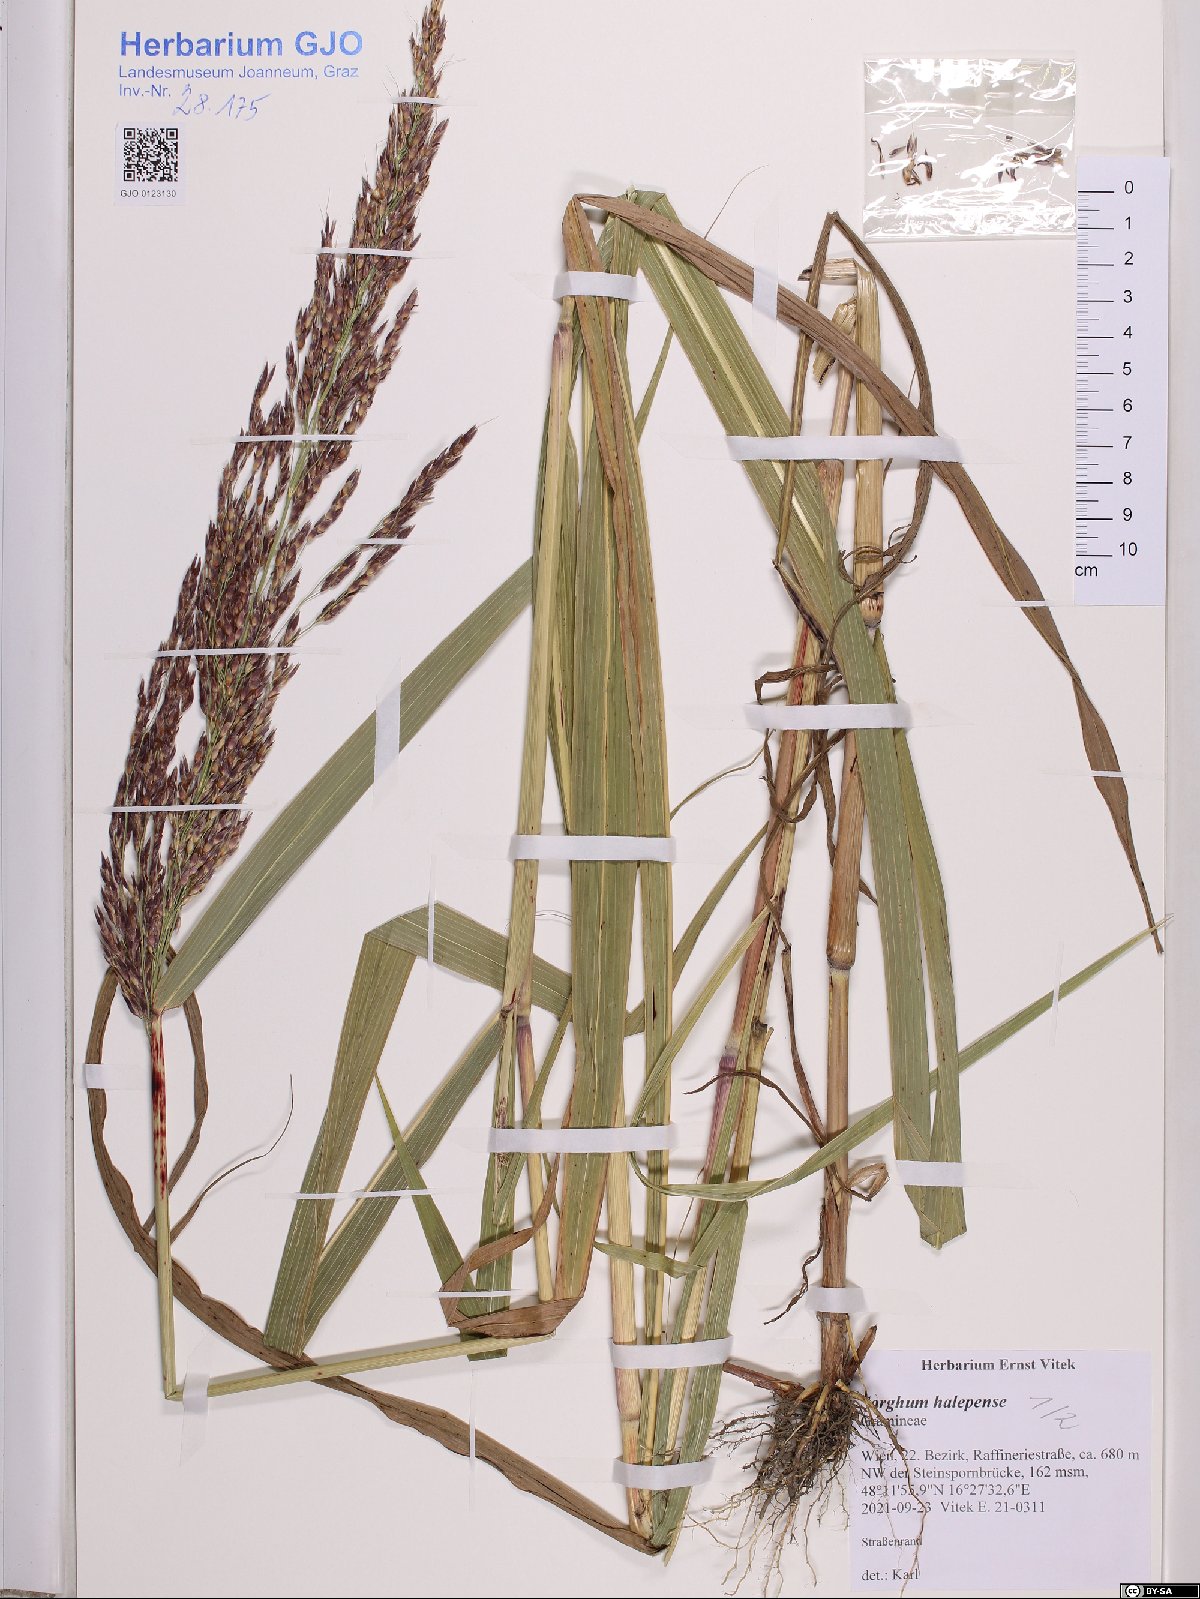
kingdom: Plantae
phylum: Tracheophyta
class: Liliopsida
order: Poales
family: Poaceae
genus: Sorghum
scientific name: Sorghum halepense
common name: Johnson-grass
